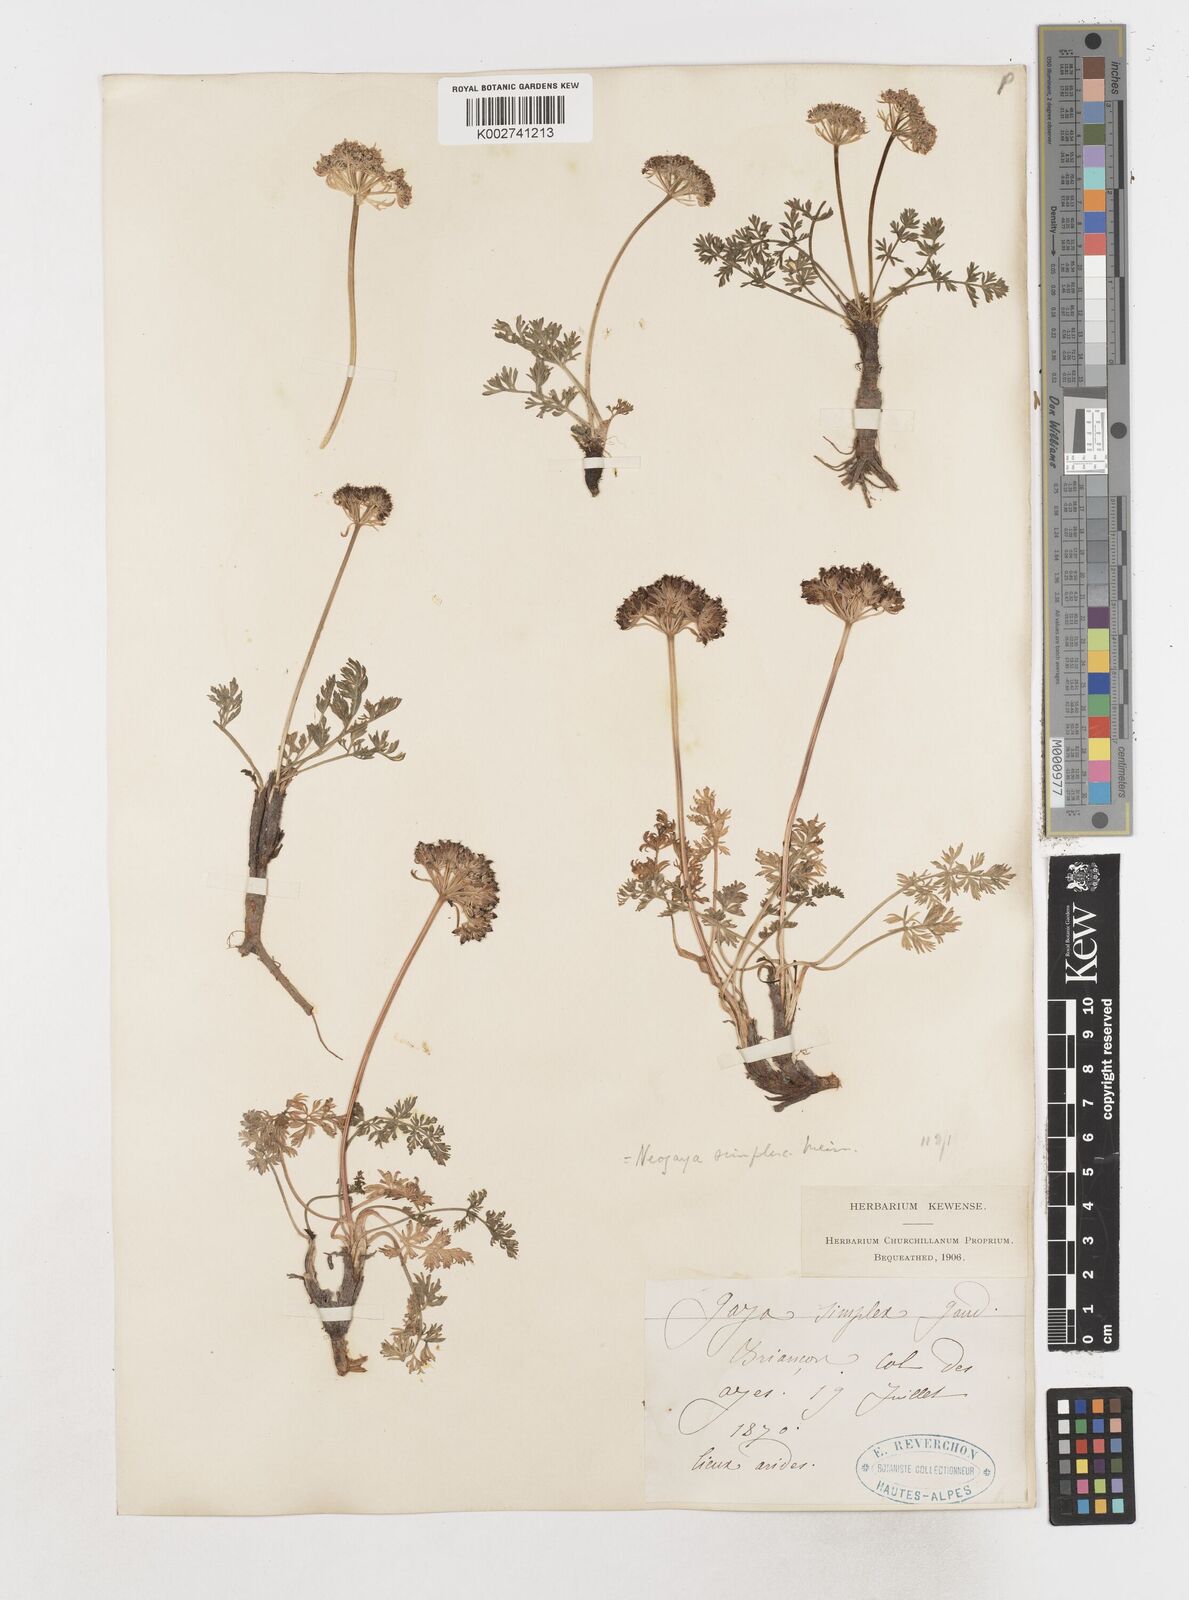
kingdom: Plantae
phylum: Tracheophyta
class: Magnoliopsida
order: Apiales
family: Apiaceae
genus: Pachypleurum
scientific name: Pachypleurum mutellinoides
